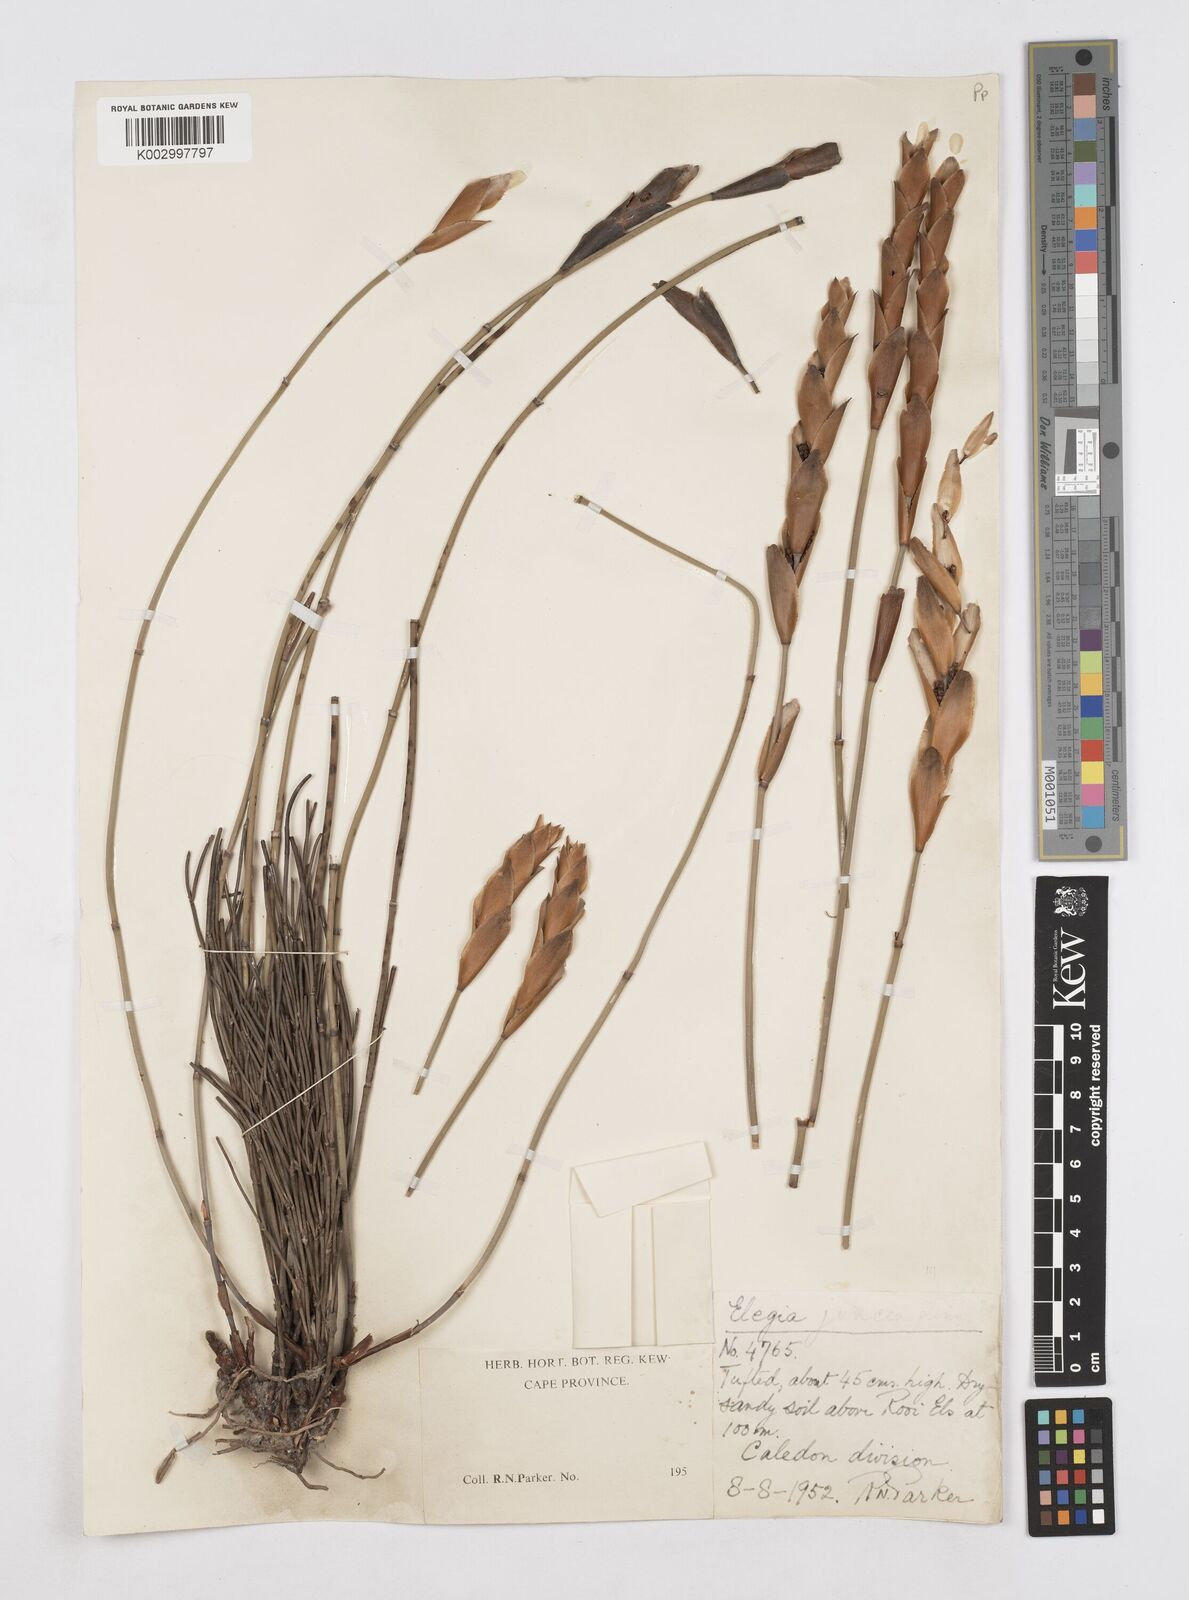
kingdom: Plantae
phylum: Tracheophyta
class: Liliopsida
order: Poales
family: Restionaceae
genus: Elegia
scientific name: Elegia juncea
